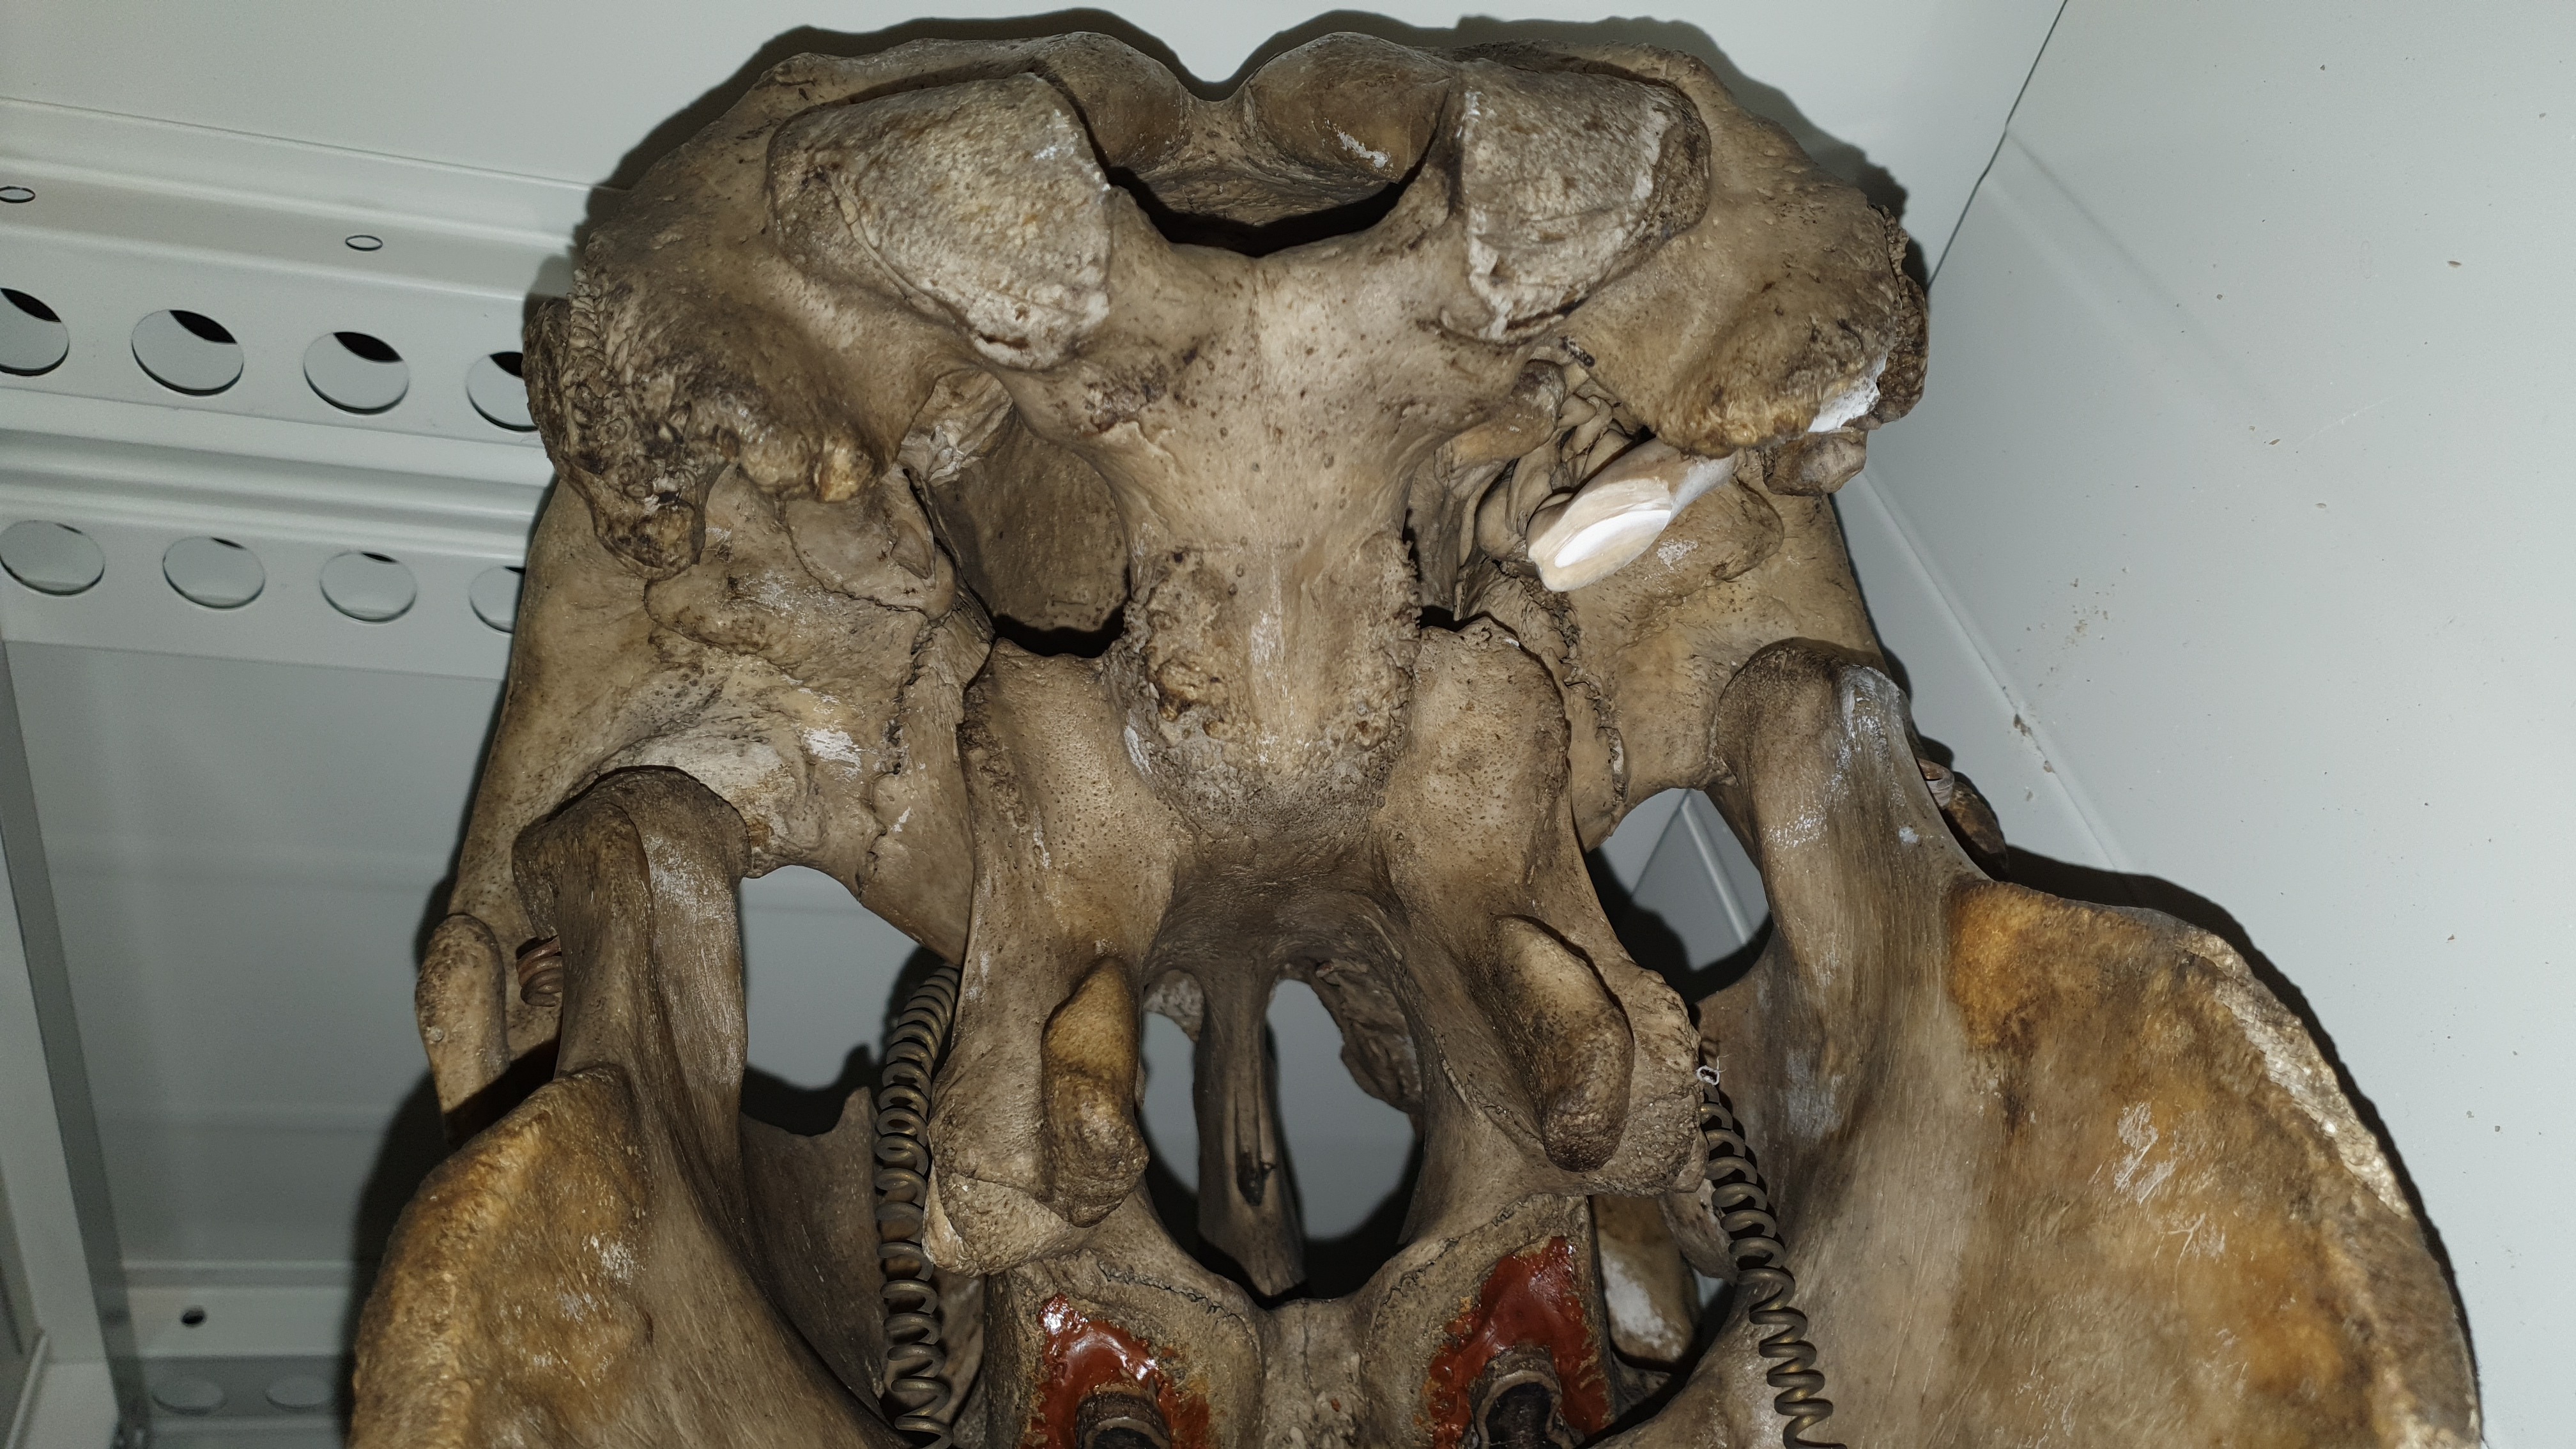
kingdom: Animalia
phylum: Chordata
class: Mammalia
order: Sirenia
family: Dugongidae
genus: Dugong
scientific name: Dugong dugon
